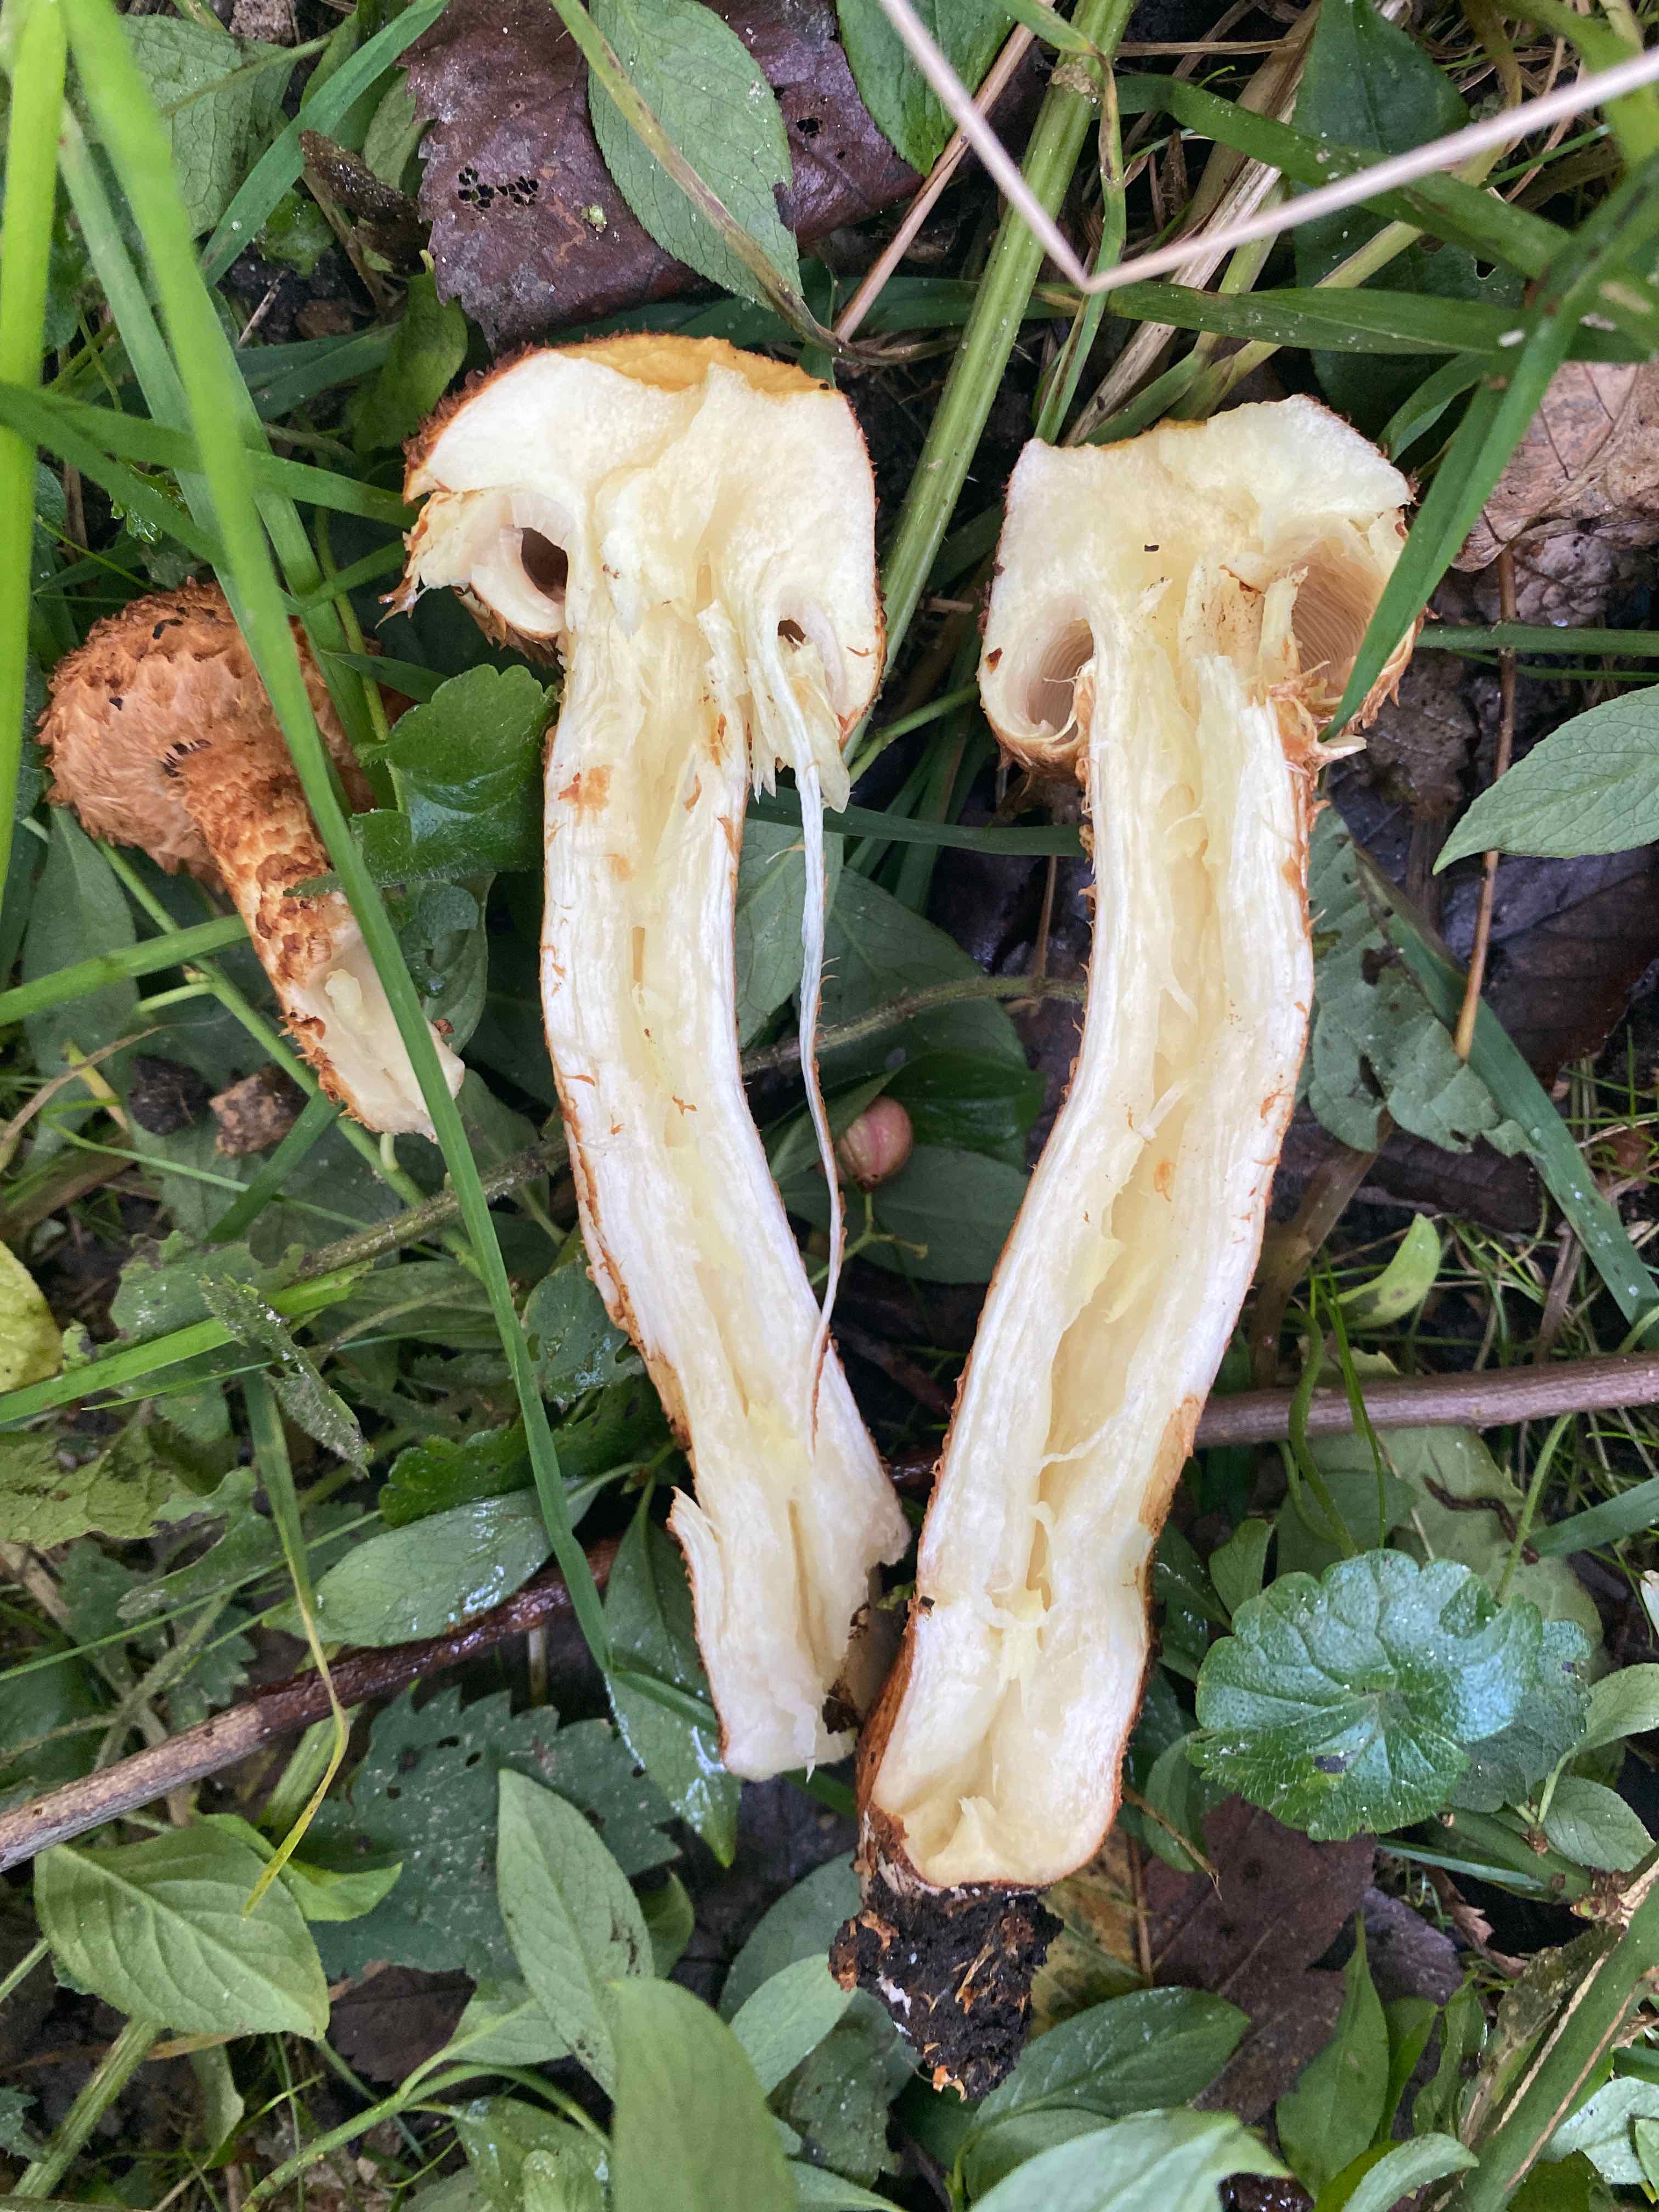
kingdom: Fungi
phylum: Basidiomycota
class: Agaricomycetes
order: Agaricales
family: Strophariaceae
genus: Pholiota
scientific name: Pholiota squarrosa
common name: krumskællet skælhat
